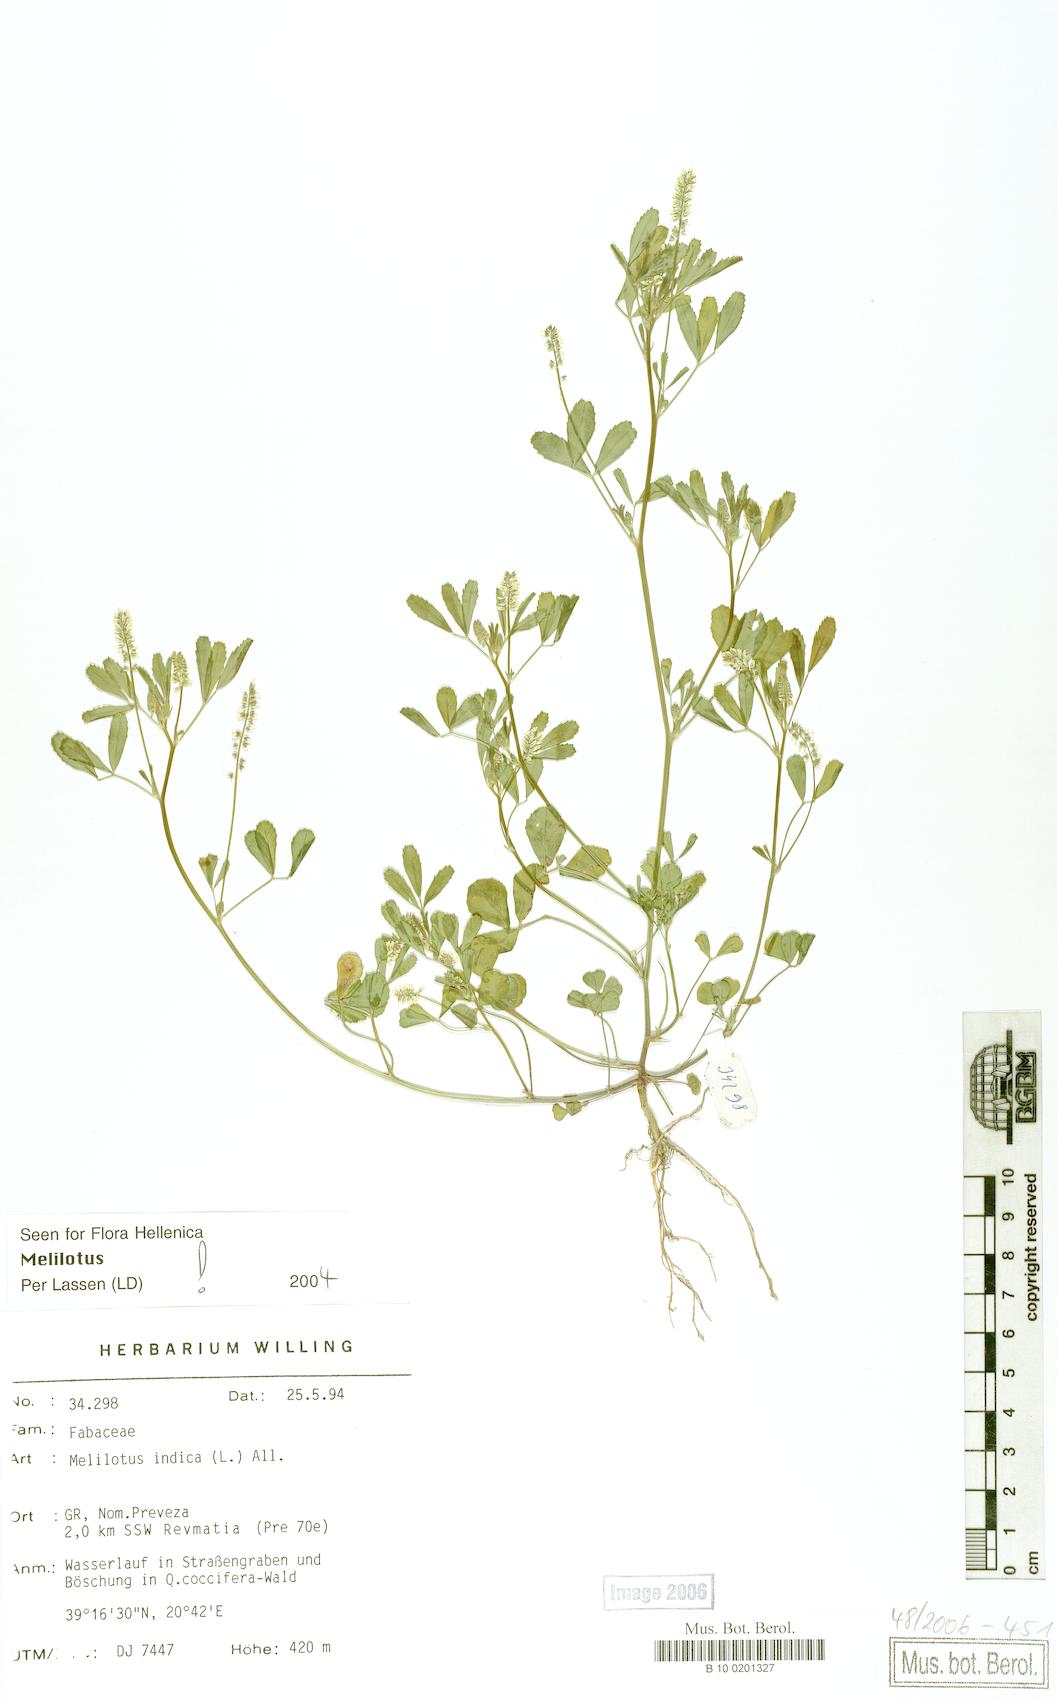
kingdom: Plantae
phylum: Tracheophyta
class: Magnoliopsida
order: Fabales
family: Fabaceae
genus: Melilotus
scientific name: Melilotus indicus
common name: Small melilot
